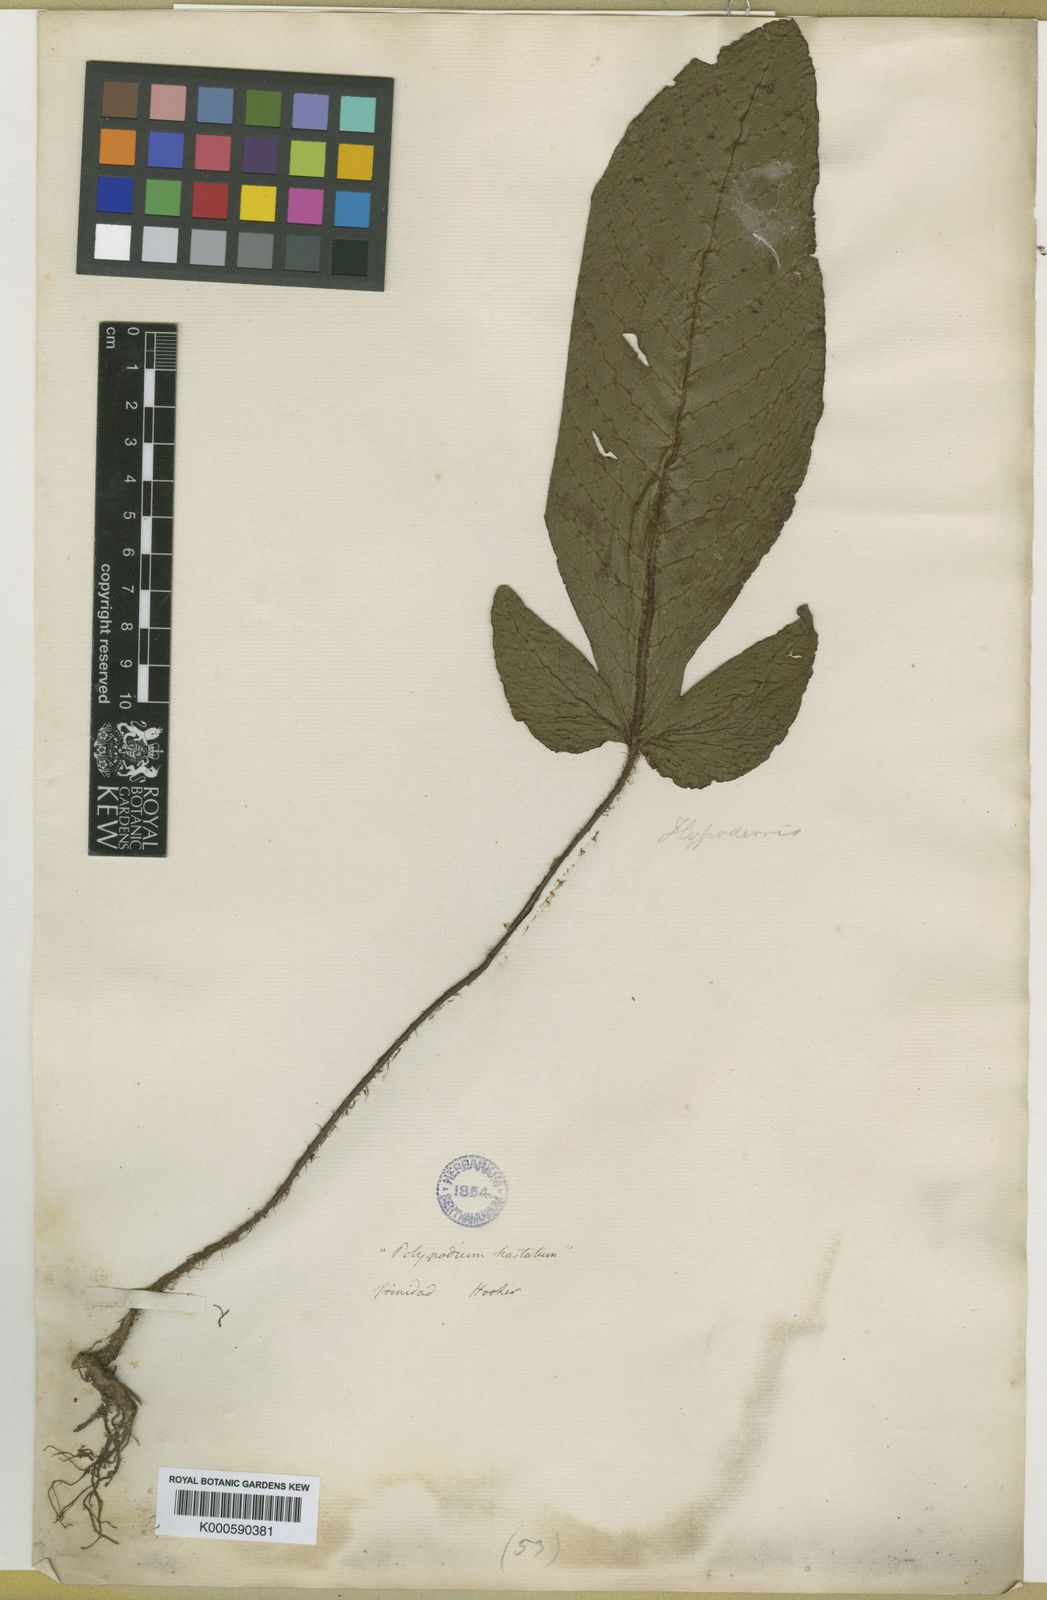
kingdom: Plantae
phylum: Tracheophyta
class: Polypodiopsida
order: Polypodiales
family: Tectariaceae
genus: Hypoderris
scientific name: Hypoderris
